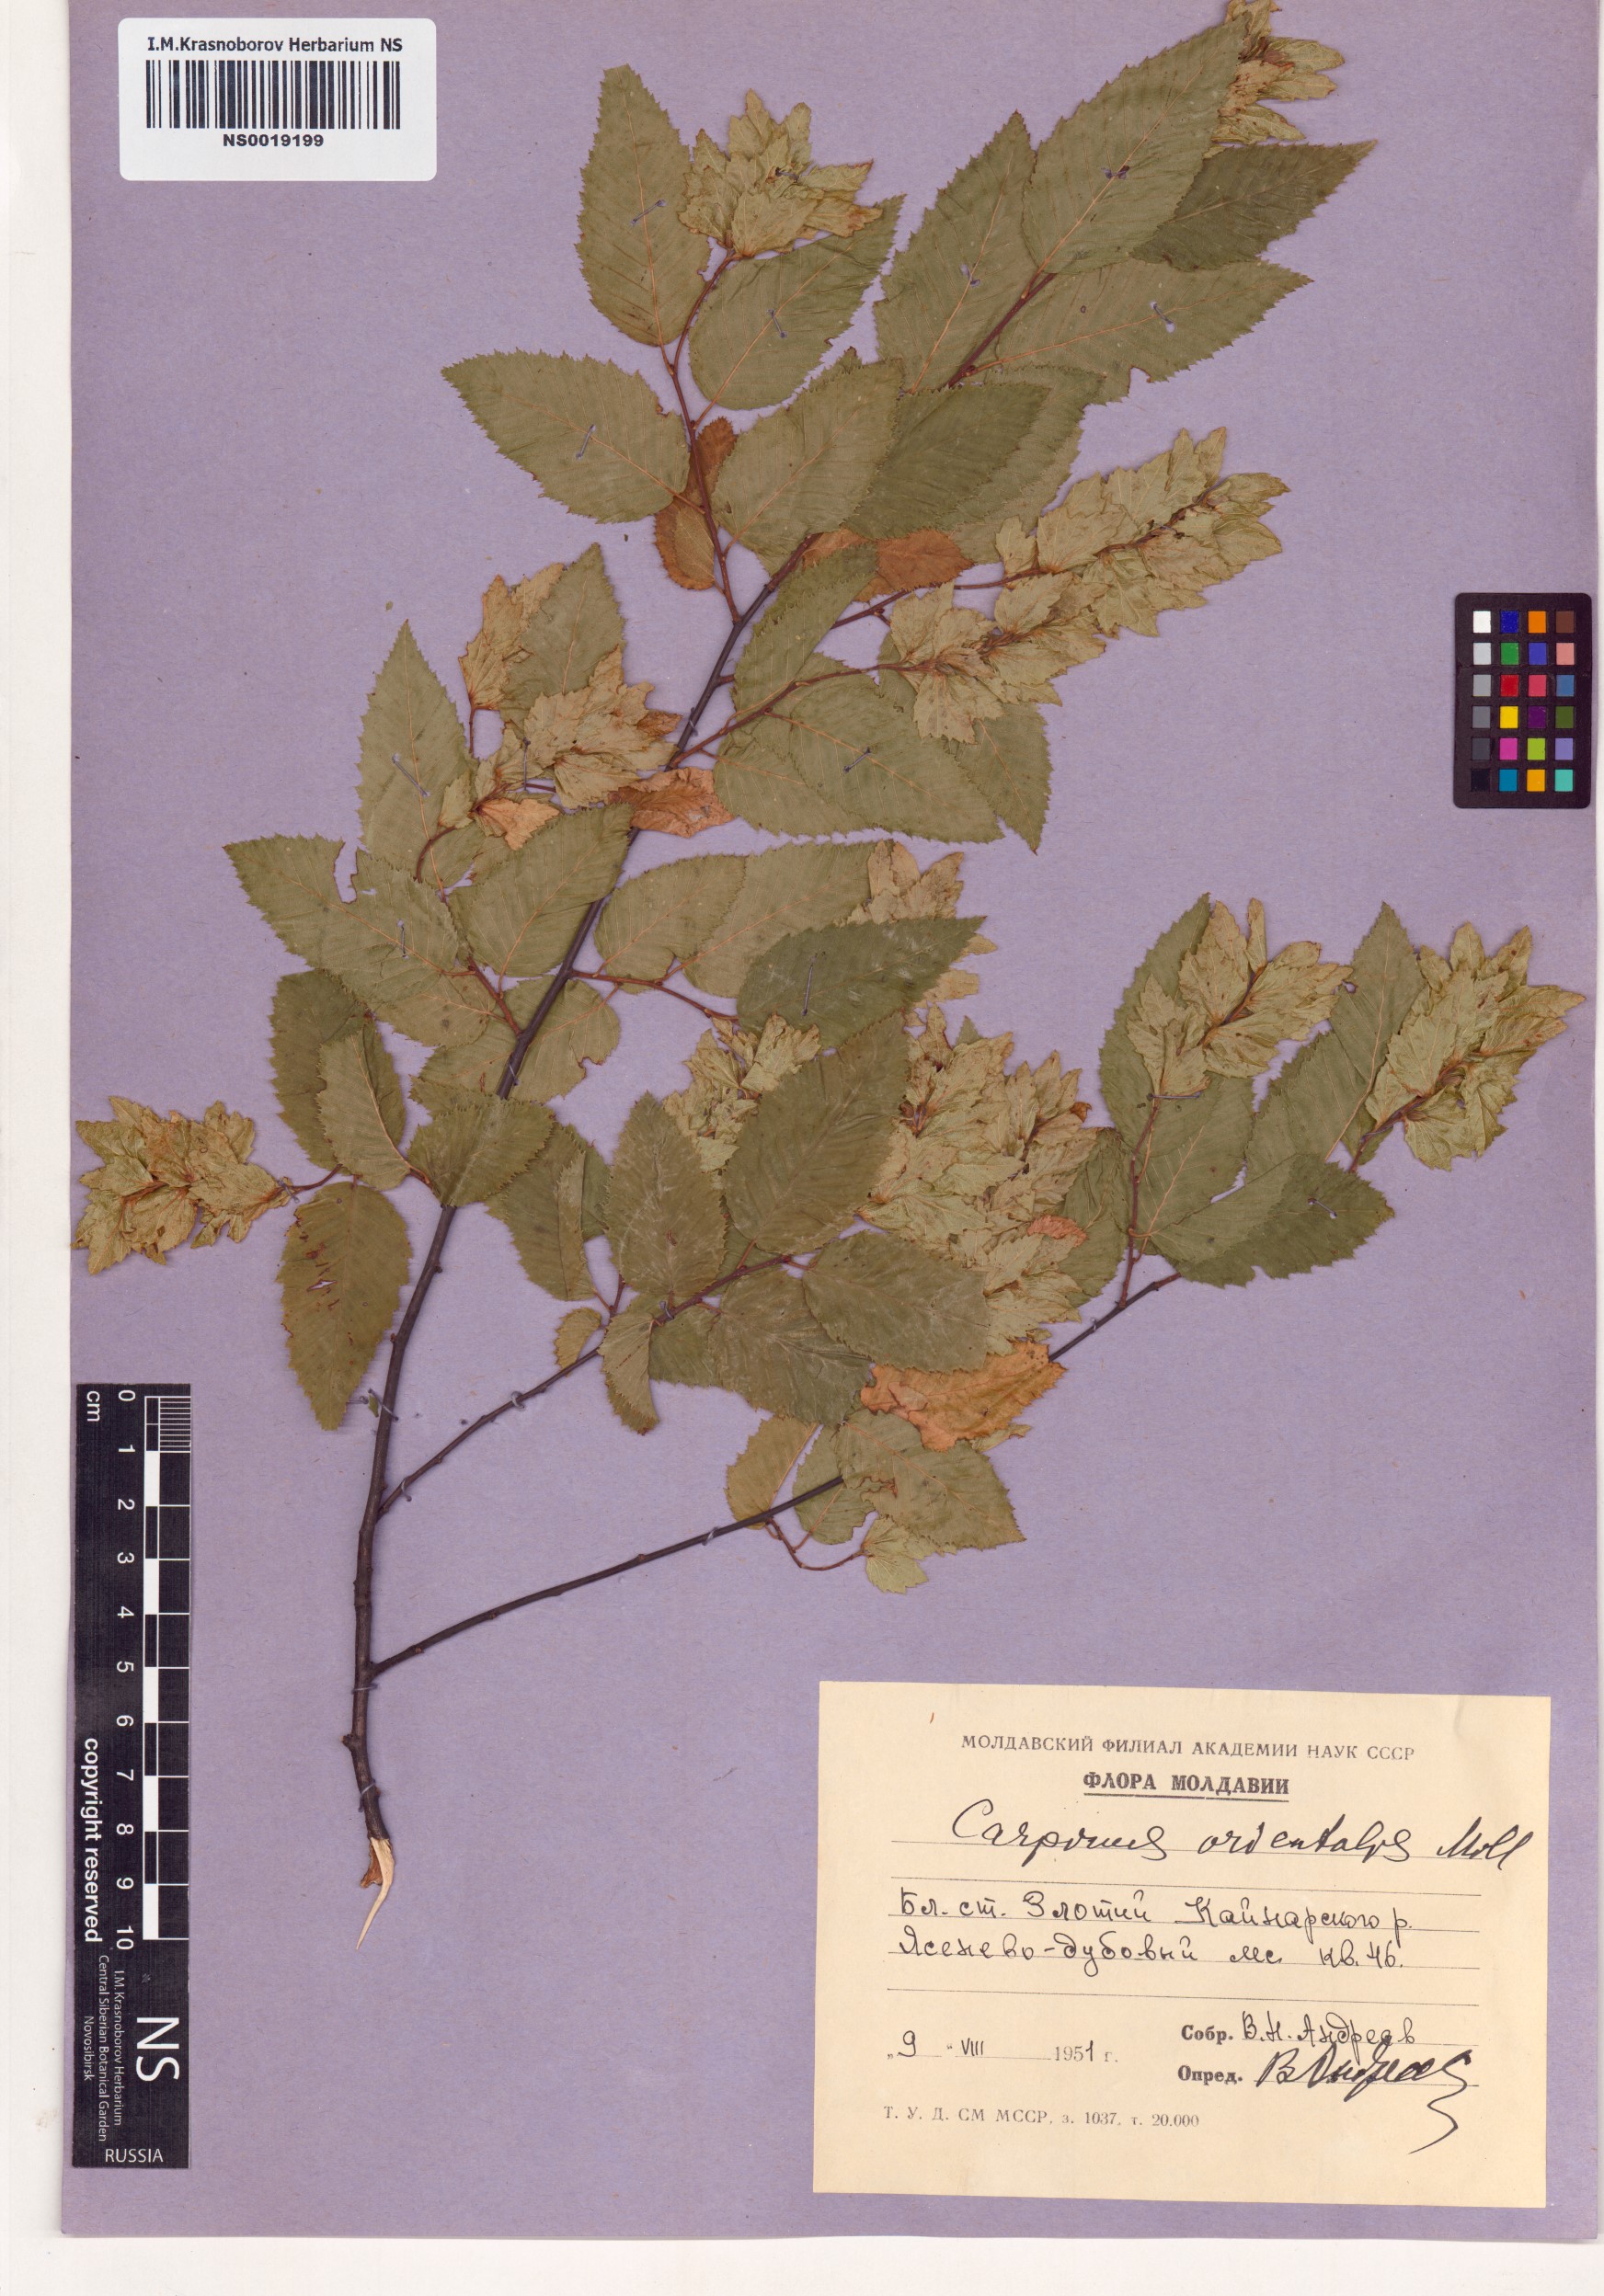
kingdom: Plantae
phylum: Tracheophyta
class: Magnoliopsida
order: Fagales
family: Betulaceae
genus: Carpinus
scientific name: Carpinus orientalis
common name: Eastern hornbeam
